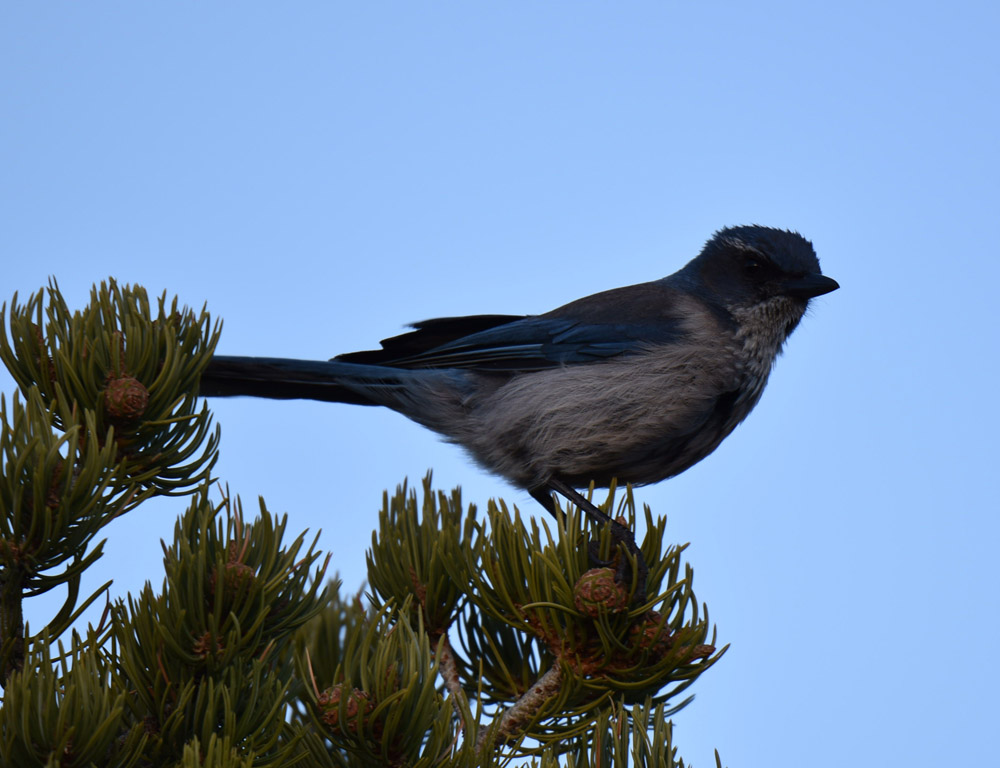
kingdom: Animalia
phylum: Chordata
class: Aves
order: Passeriformes
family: Corvidae
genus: Aphelocoma
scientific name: Aphelocoma californica
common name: California scrub-jay
